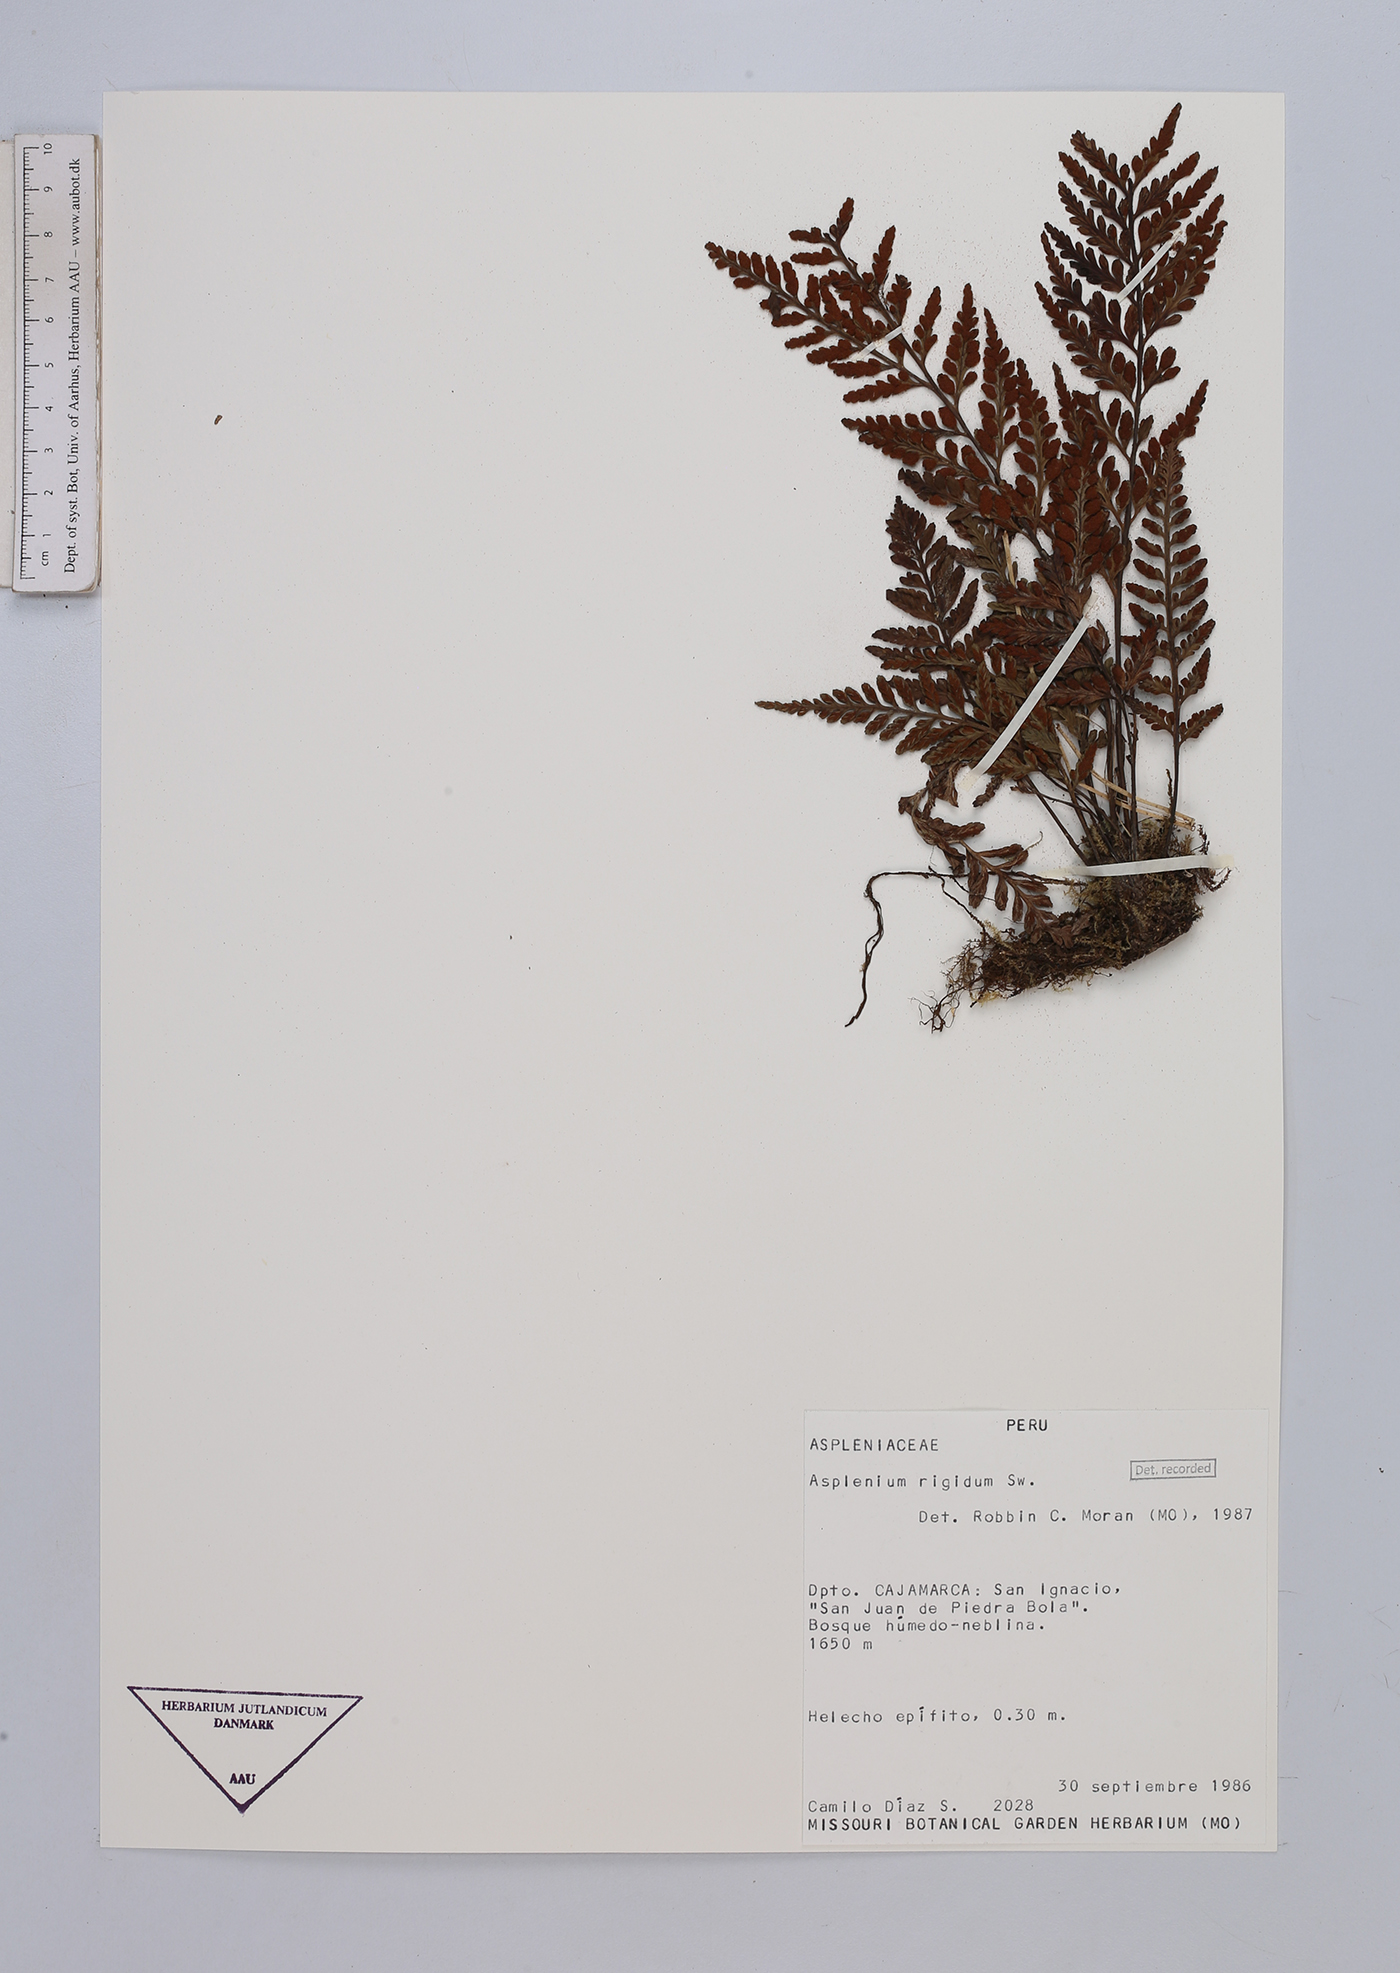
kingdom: Plantae
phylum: Tracheophyta
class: Polypodiopsida
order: Polypodiales
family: Aspleniaceae
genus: Asplenium
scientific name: Asplenium cuspidatum
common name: Eared spleenwort
